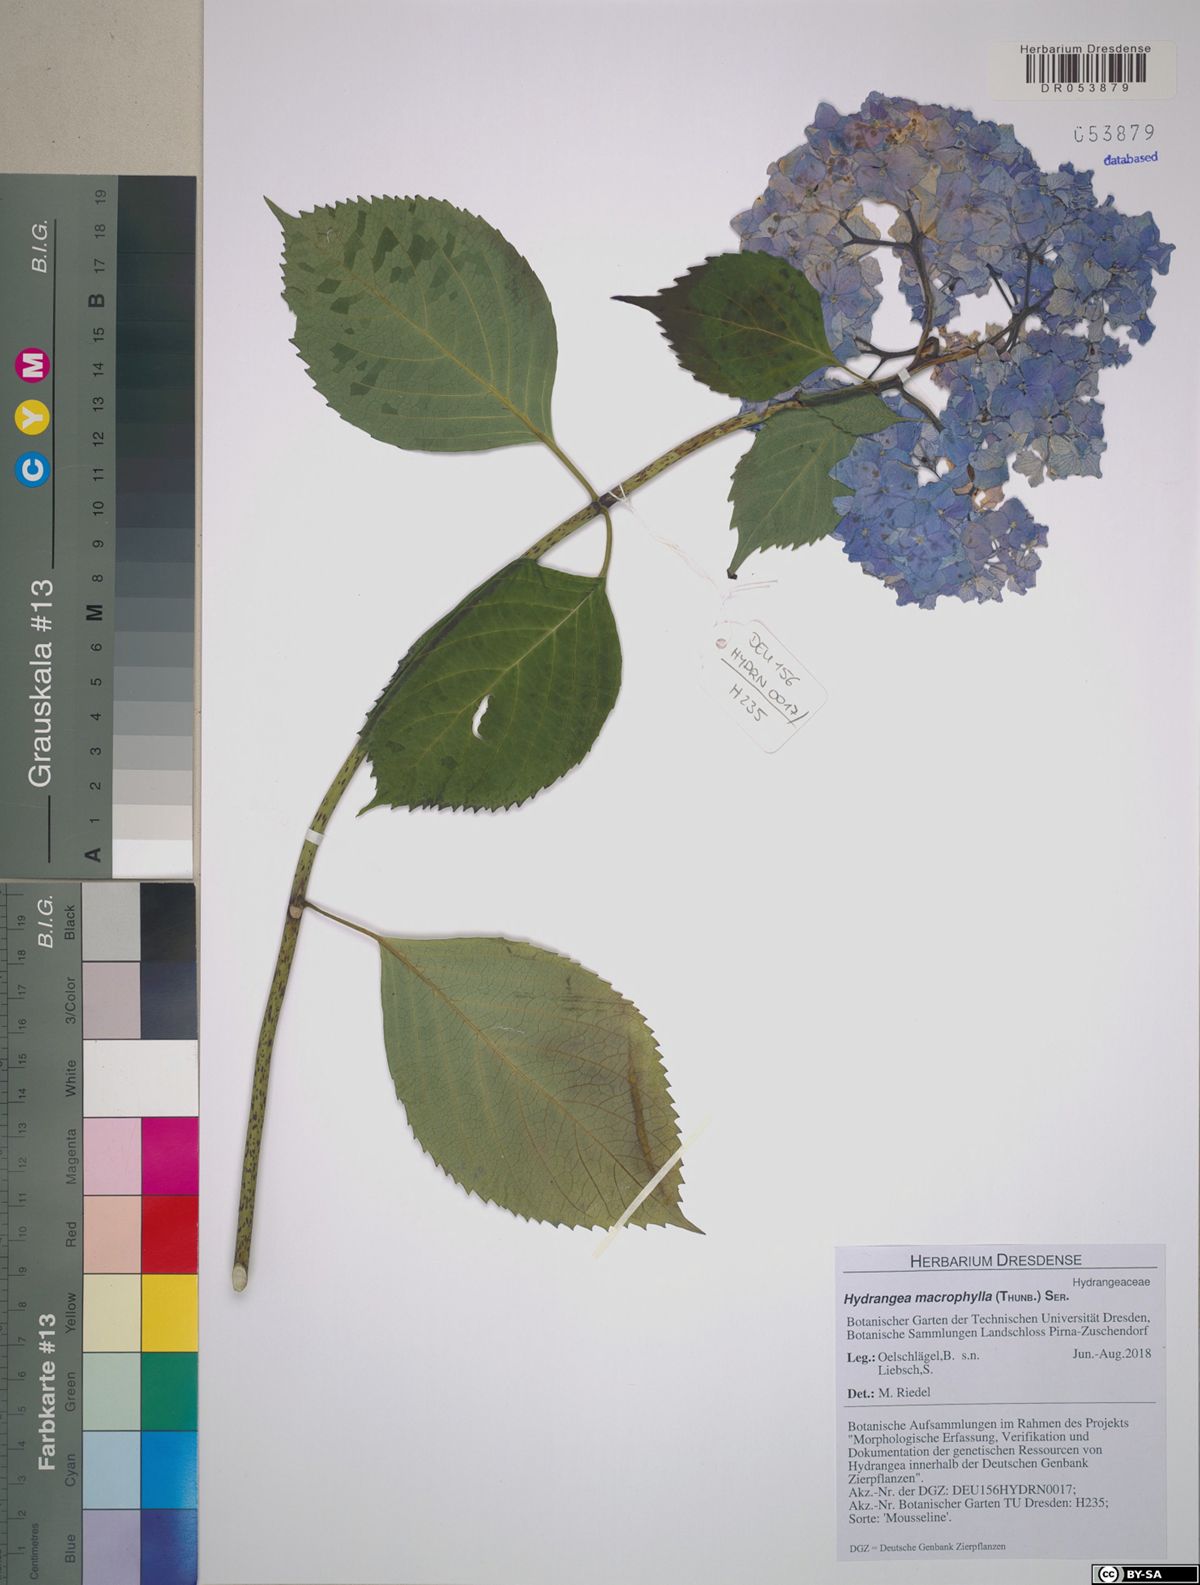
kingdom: Plantae
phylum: Tracheophyta
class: Magnoliopsida
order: Cornales
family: Hydrangeaceae
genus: Hydrangea
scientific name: Hydrangea macrophylla
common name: Hydrangea
